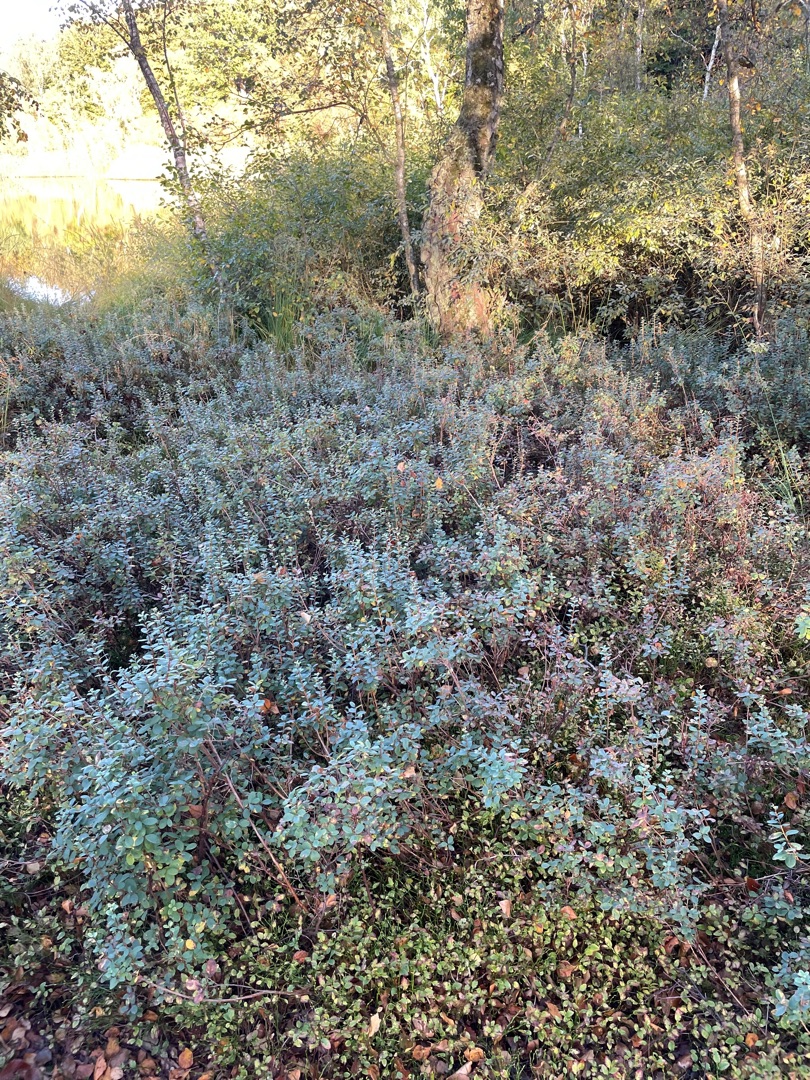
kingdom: Plantae
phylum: Tracheophyta
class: Magnoliopsida
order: Ericales
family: Ericaceae
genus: Vaccinium
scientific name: Vaccinium uliginosum
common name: Mose-bølle
